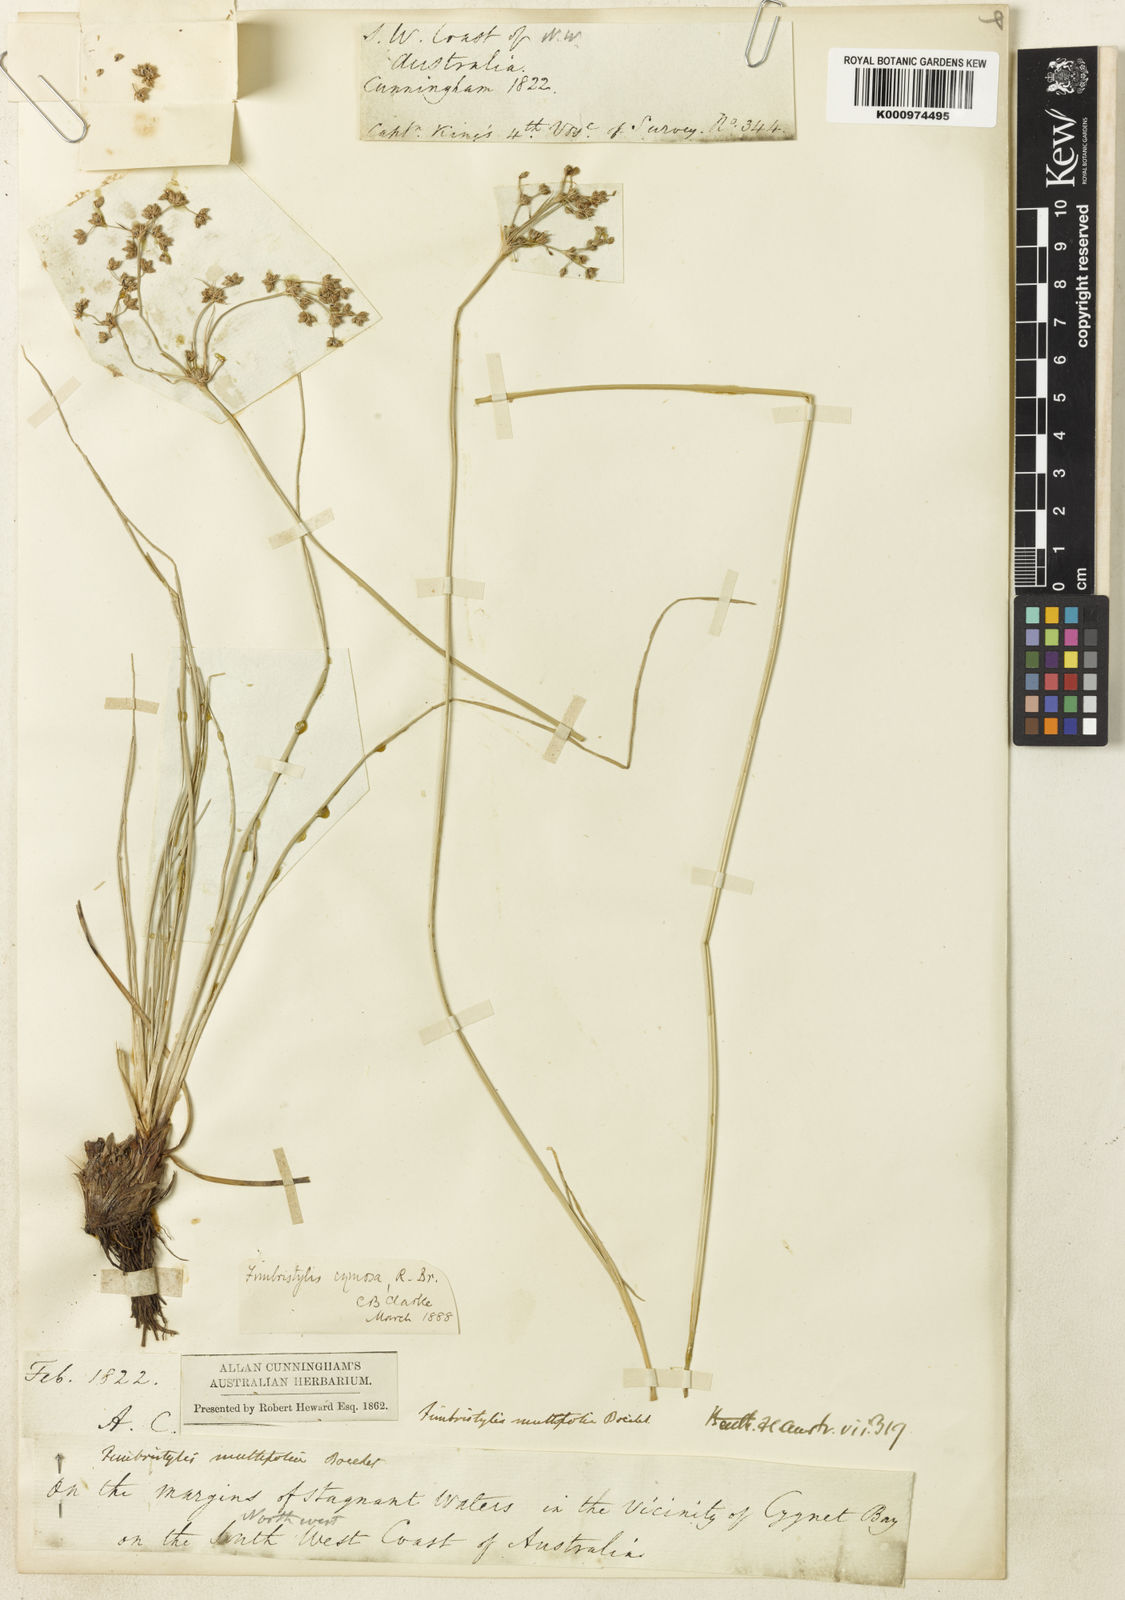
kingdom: Plantae
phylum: Tracheophyta
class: Liliopsida
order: Poales
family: Cyperaceae
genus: Fimbristylis
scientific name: Fimbristylis cymosa
